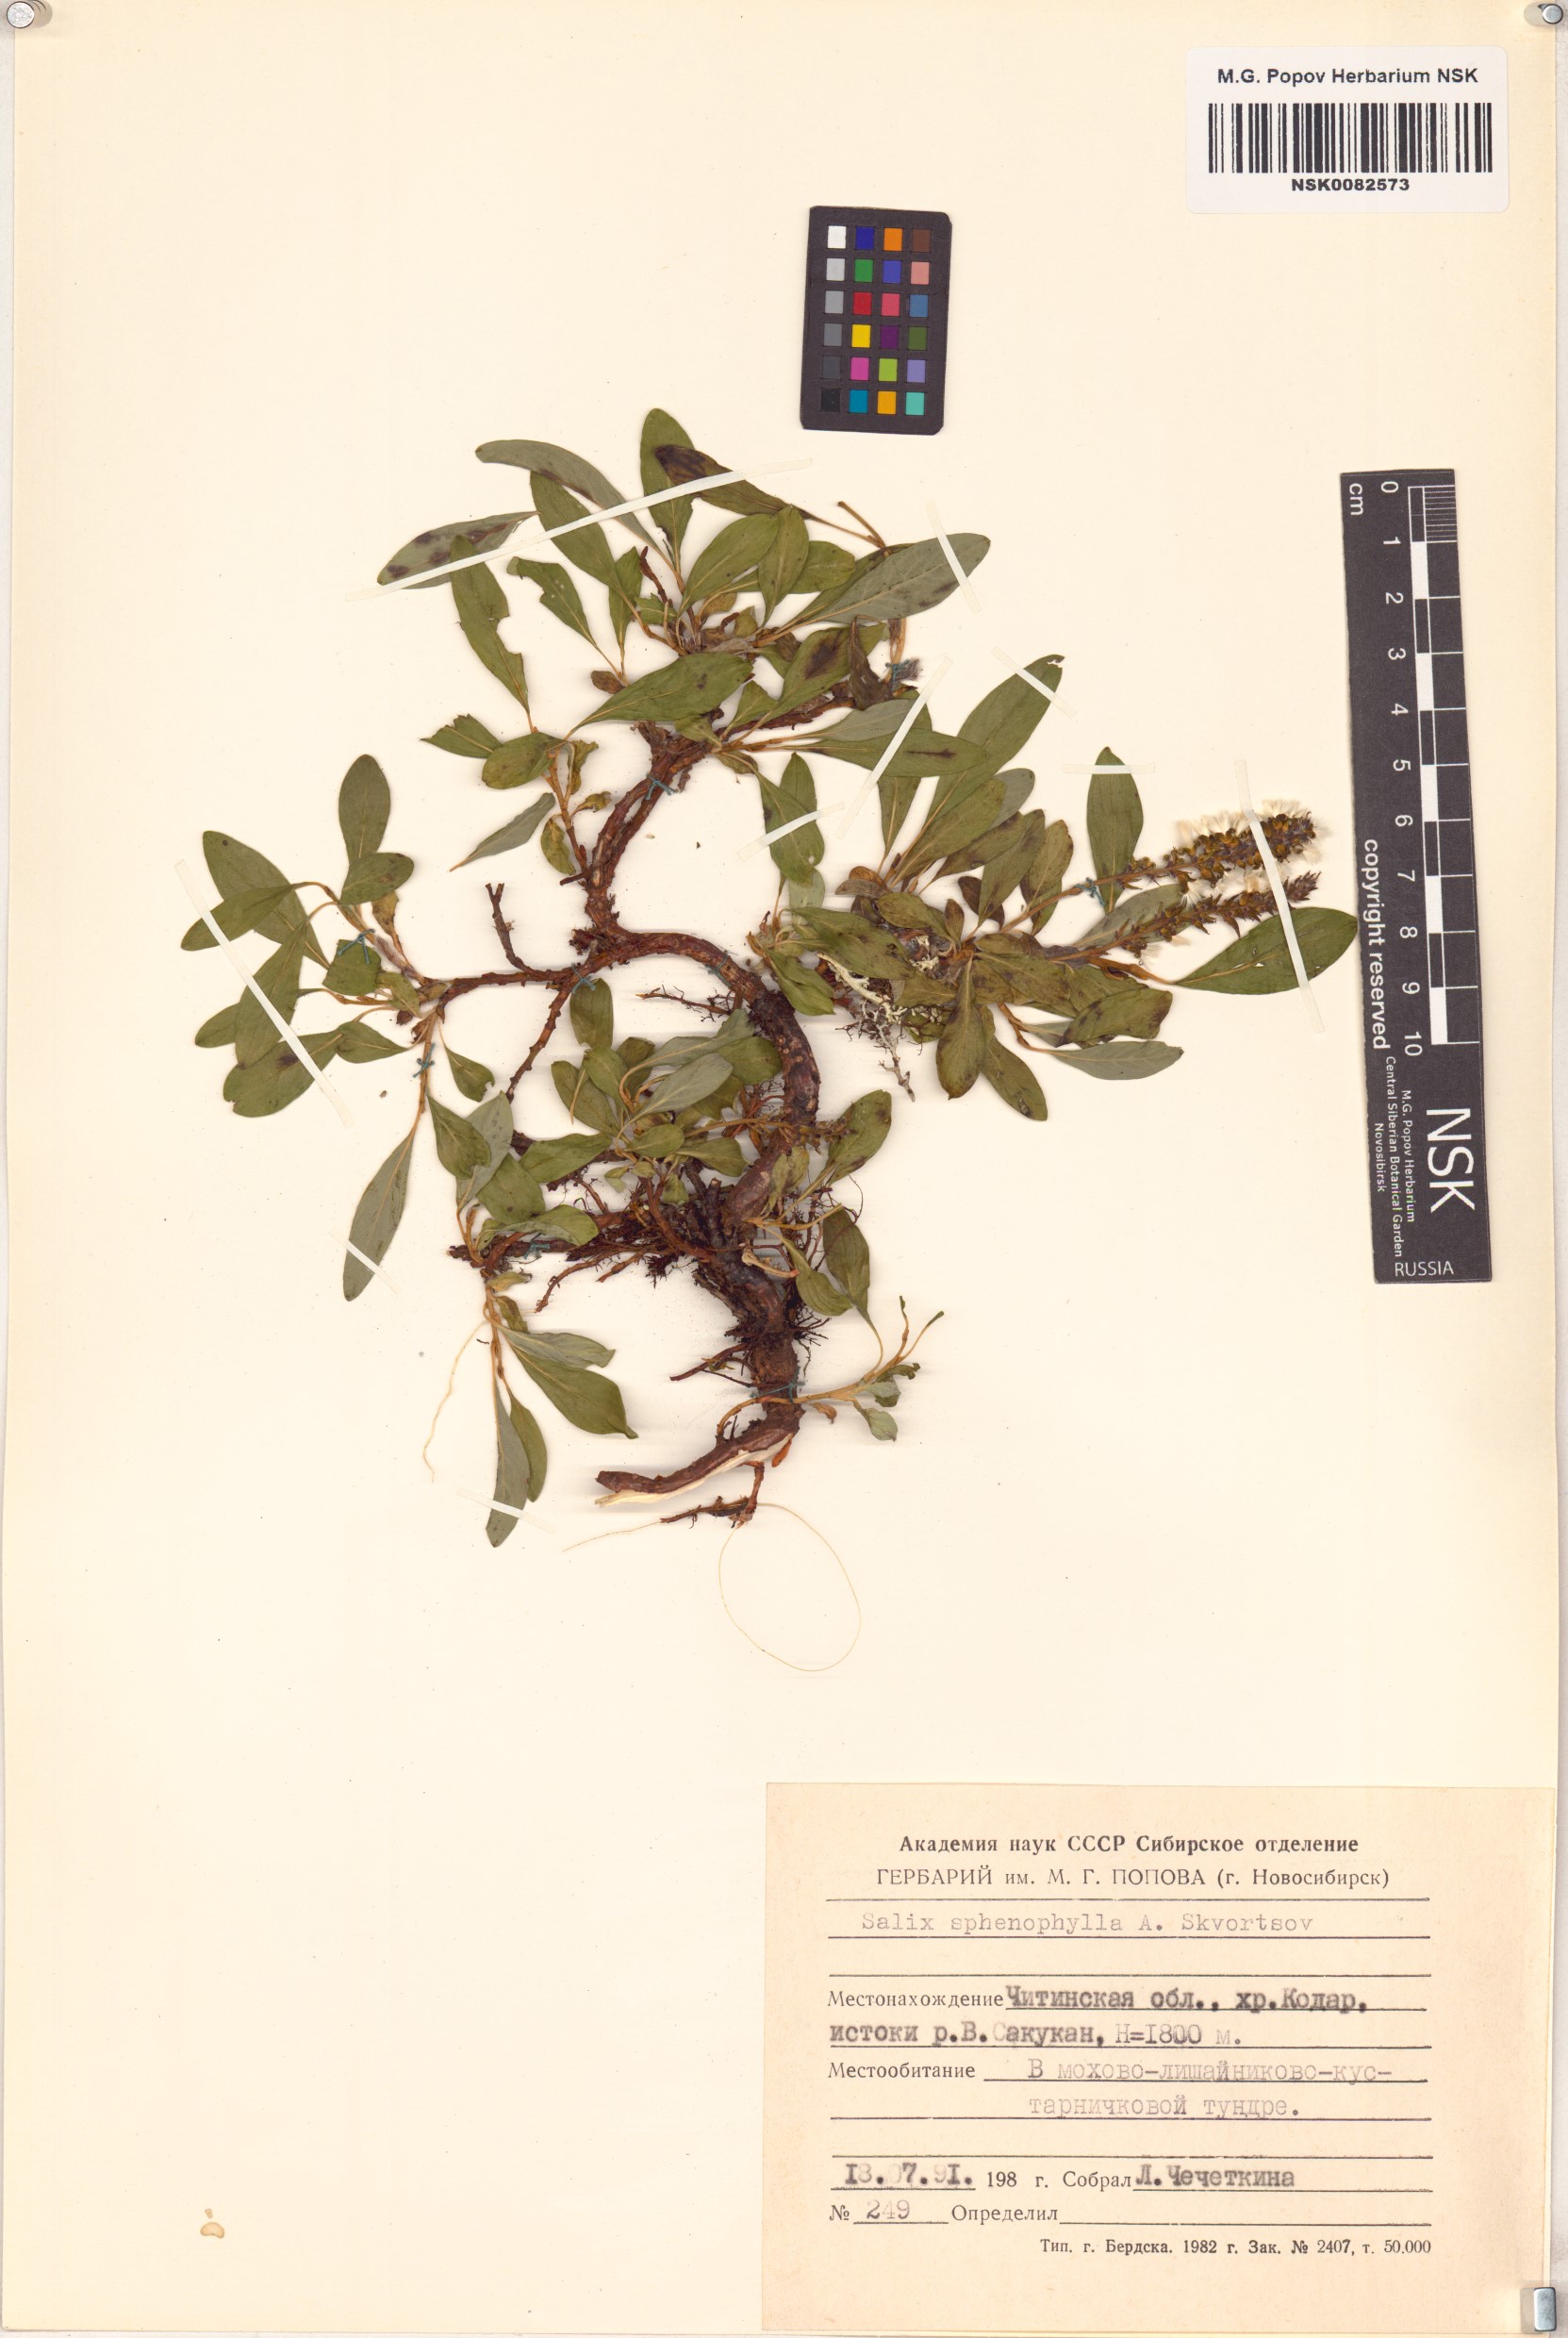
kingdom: Plantae
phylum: Tracheophyta
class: Magnoliopsida
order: Malpighiales
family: Salicaceae
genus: Salix
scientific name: Salix sphenophylla
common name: Wedge-leaved willow
